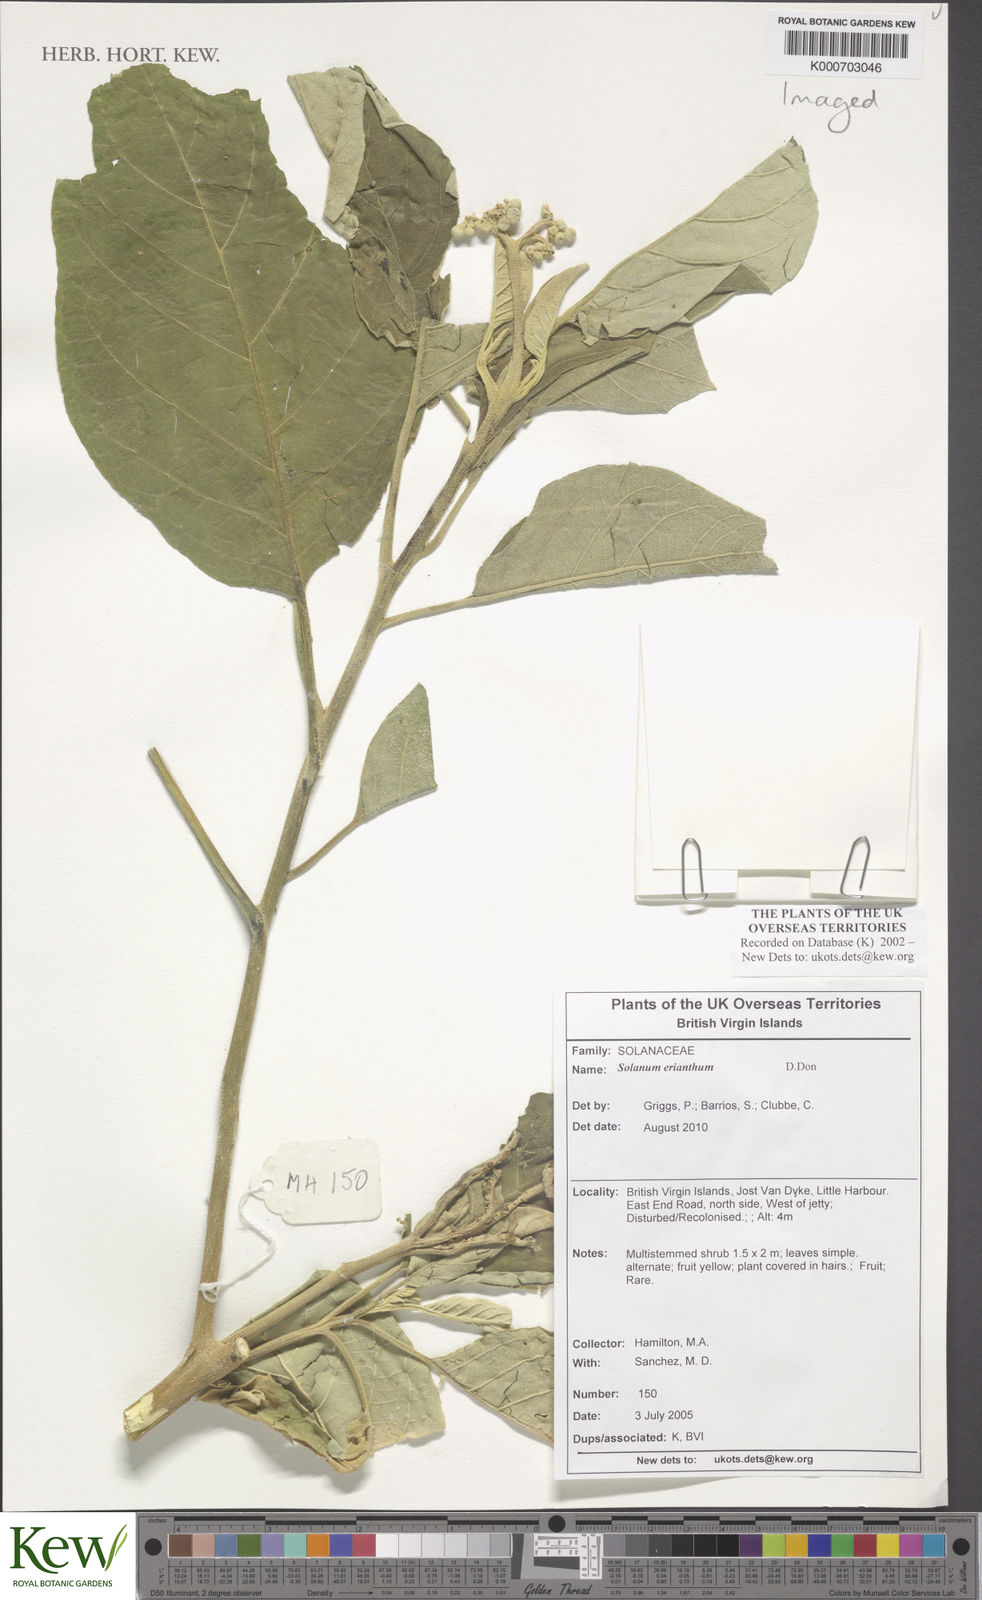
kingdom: Plantae
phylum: Tracheophyta
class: Magnoliopsida
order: Solanales
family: Solanaceae
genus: Solanum
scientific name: Solanum erianthum
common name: Tobacco-tree
